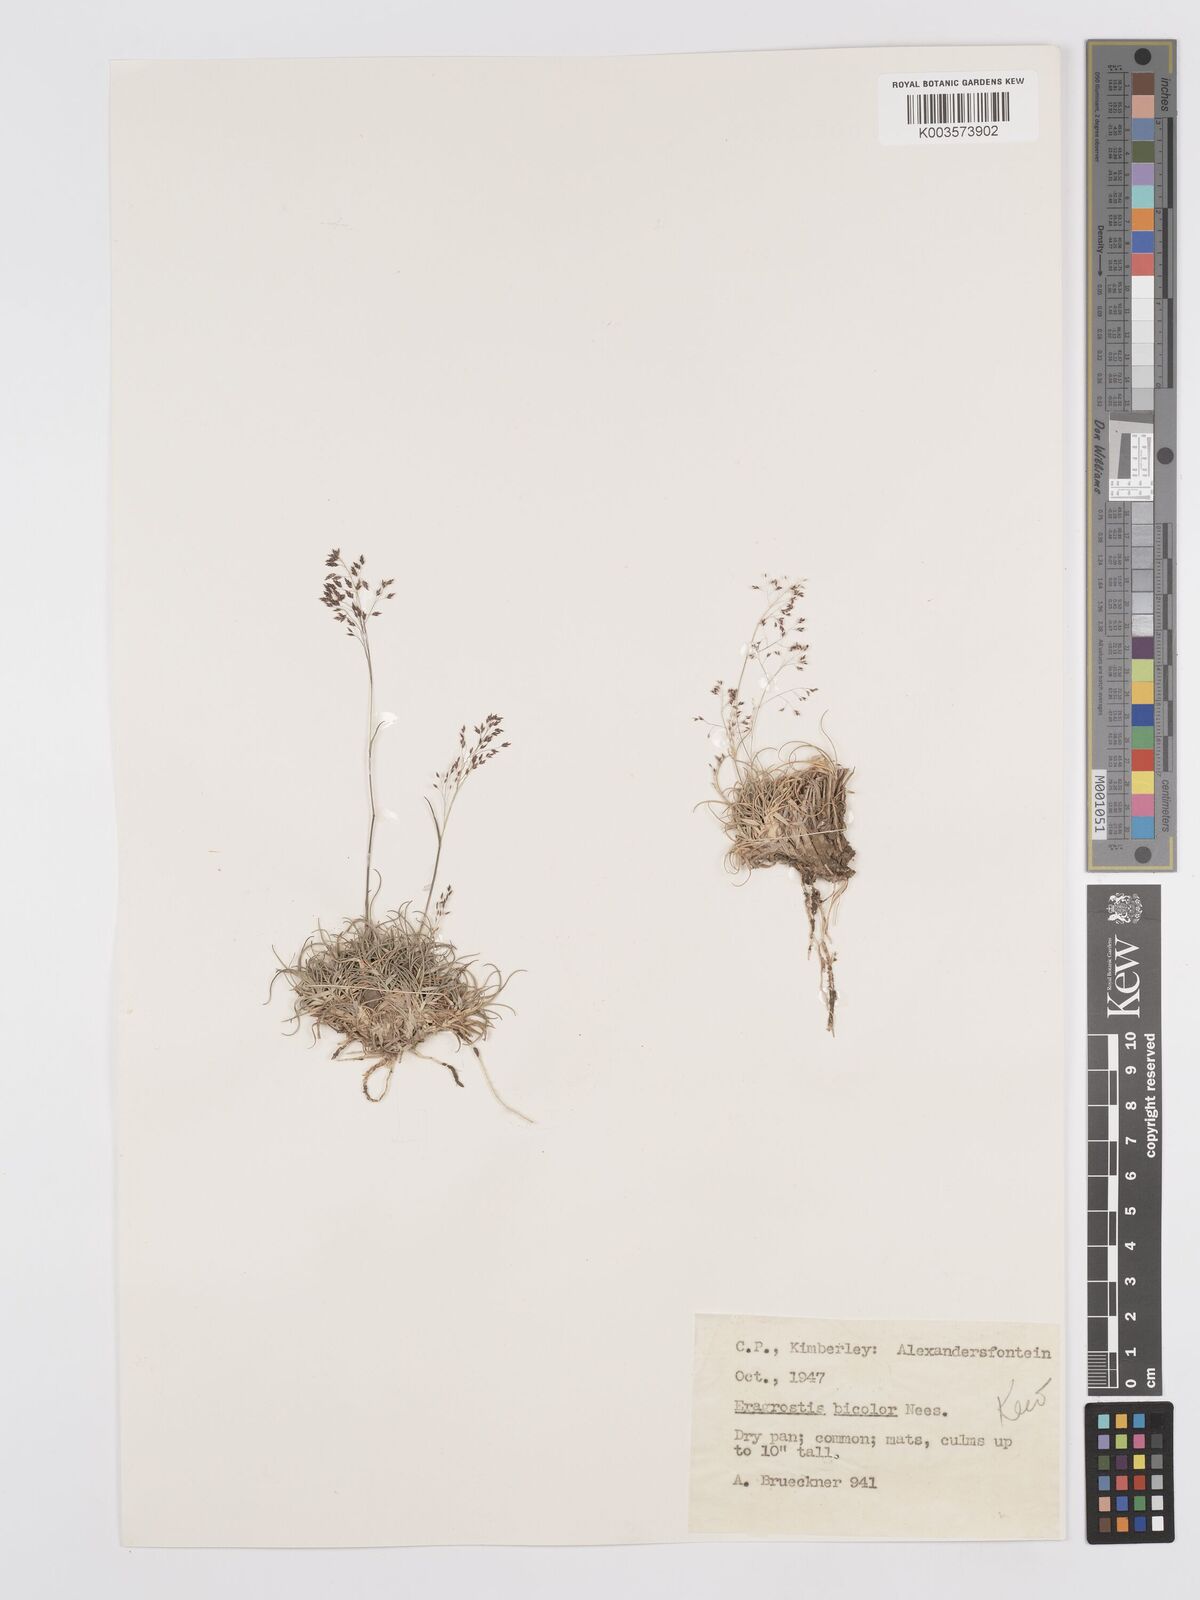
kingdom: Plantae
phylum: Tracheophyta
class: Liliopsida
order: Poales
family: Poaceae
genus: Eragrostis
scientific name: Eragrostis
